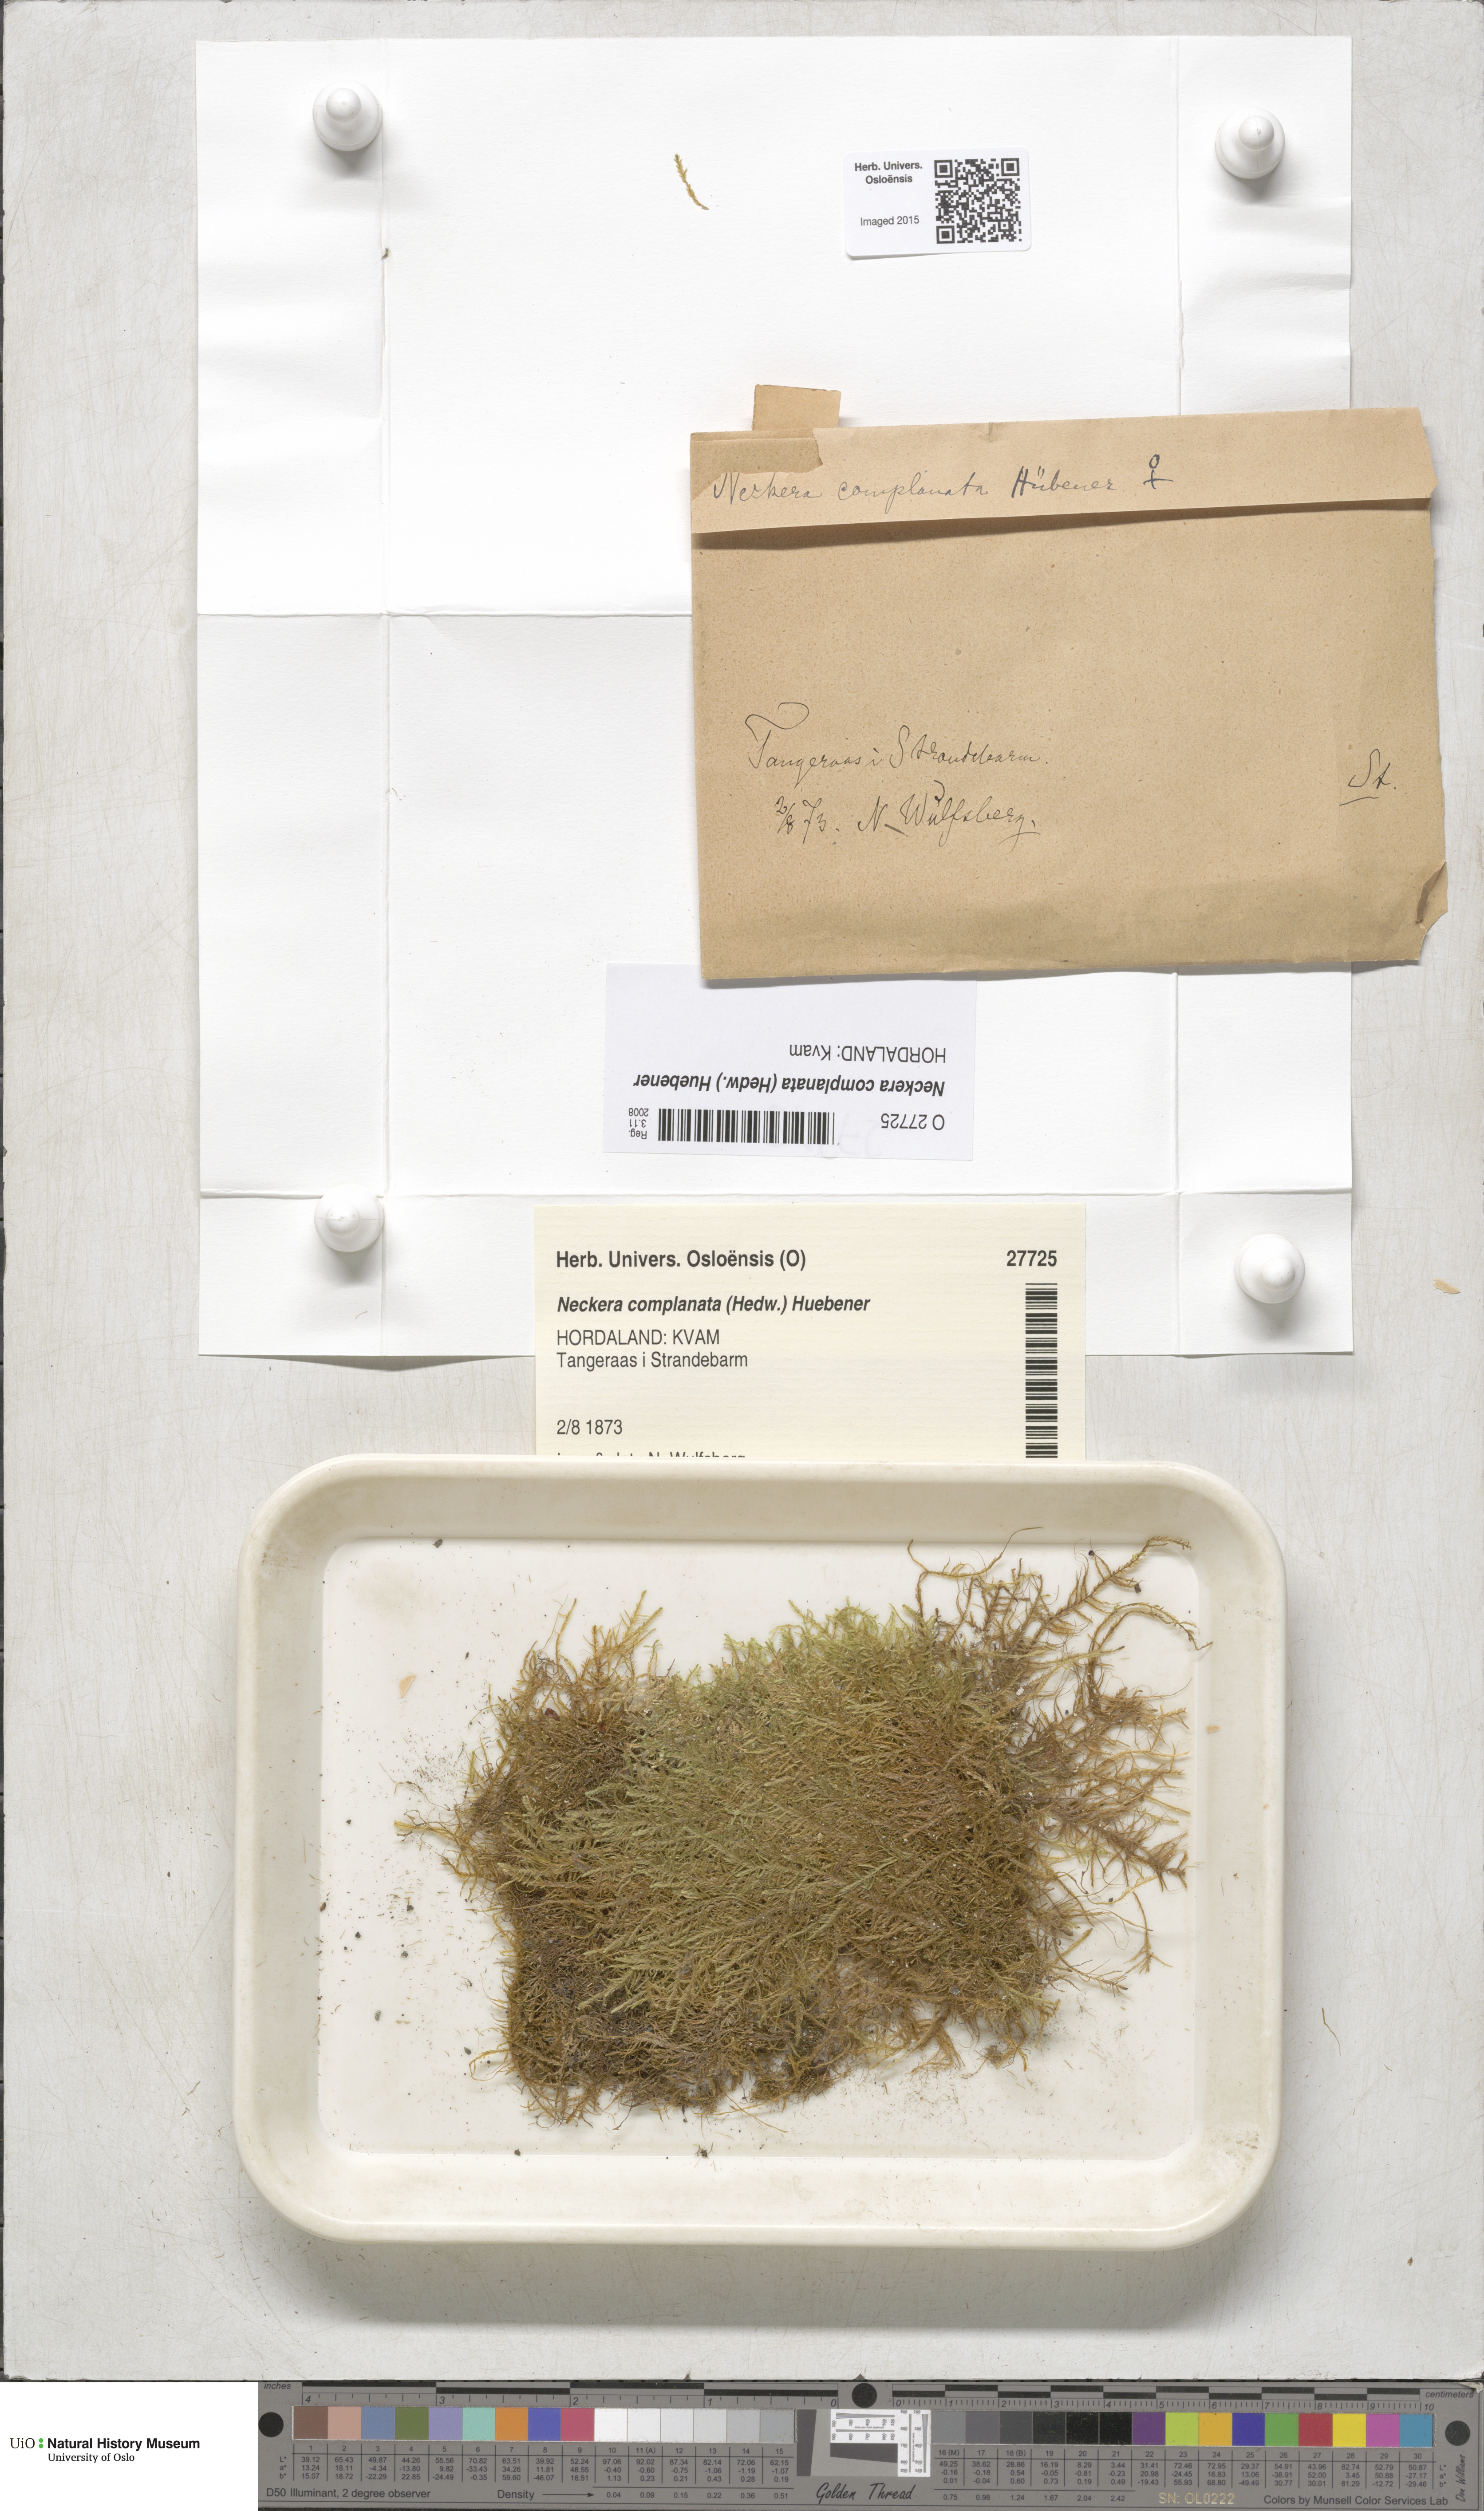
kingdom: Plantae
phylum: Bryophyta
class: Bryopsida
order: Hypnales
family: Neckeraceae
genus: Alleniella
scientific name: Alleniella complanata
